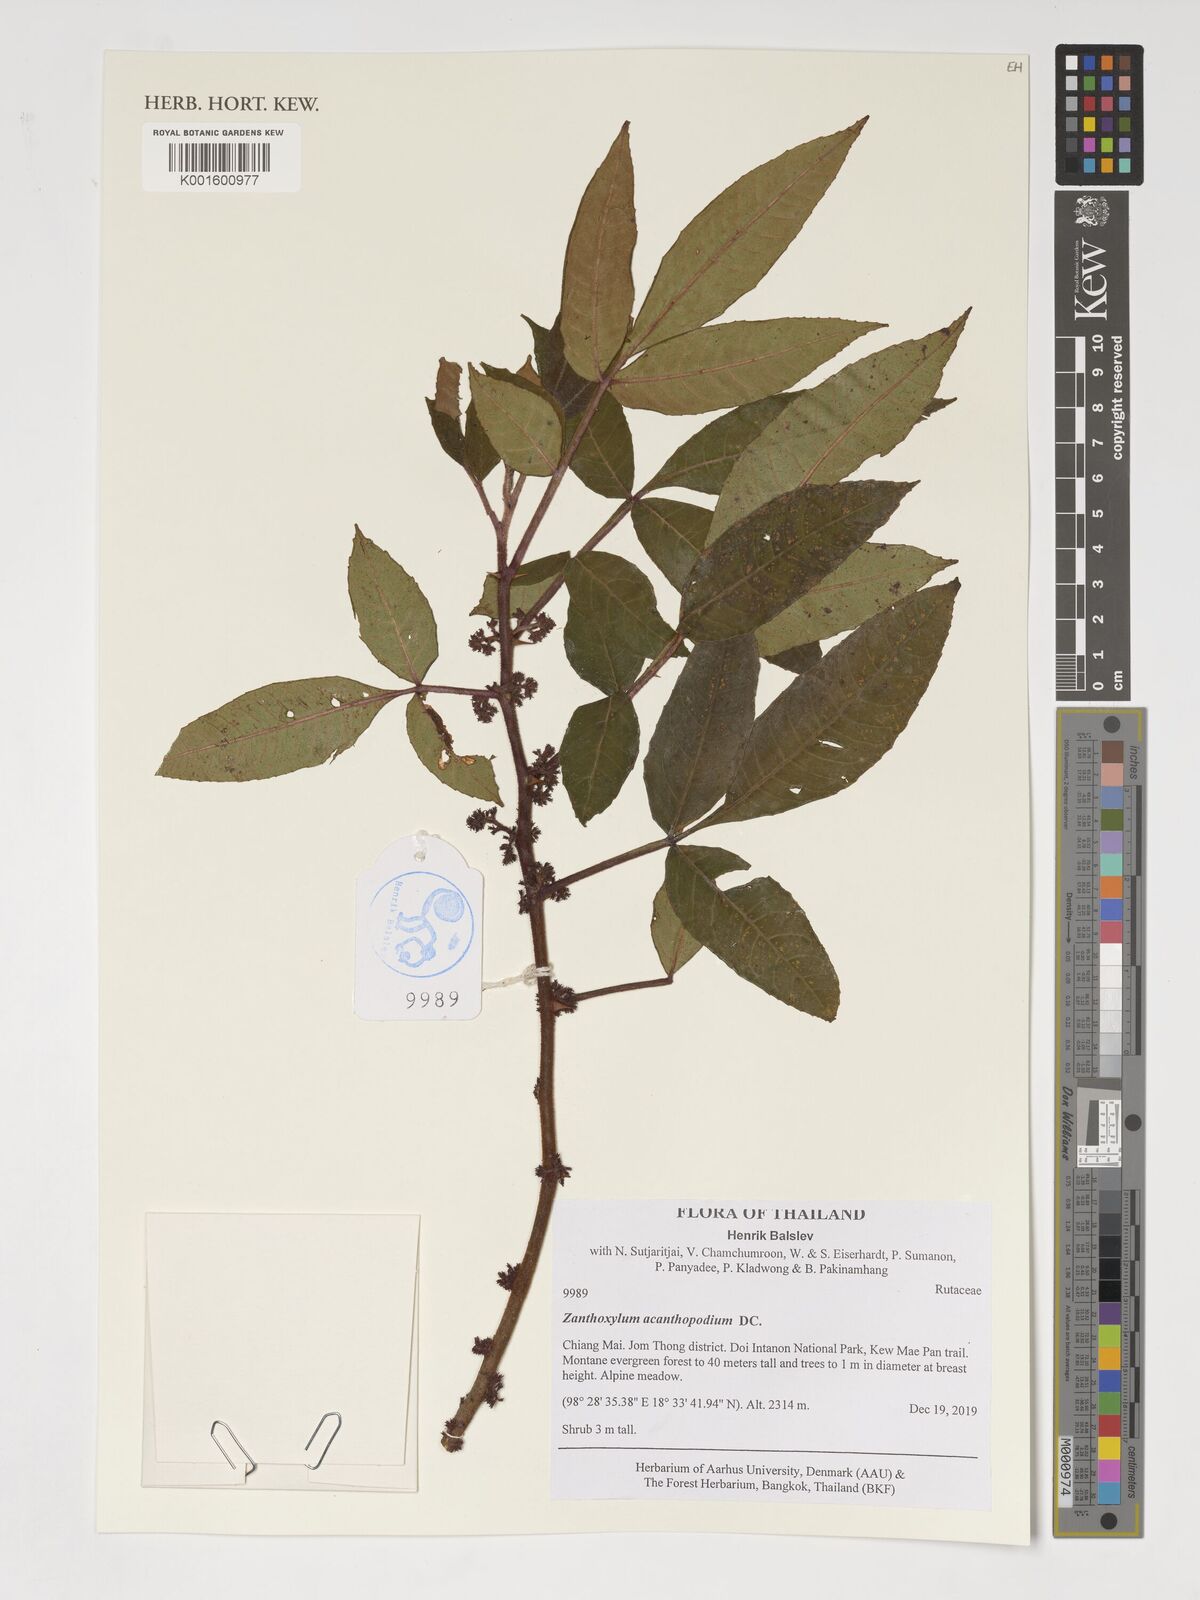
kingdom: Plantae
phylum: Tracheophyta
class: Magnoliopsida
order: Sapindales
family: Rutaceae
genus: Zanthoxylum
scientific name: Zanthoxylum acanthopodium
